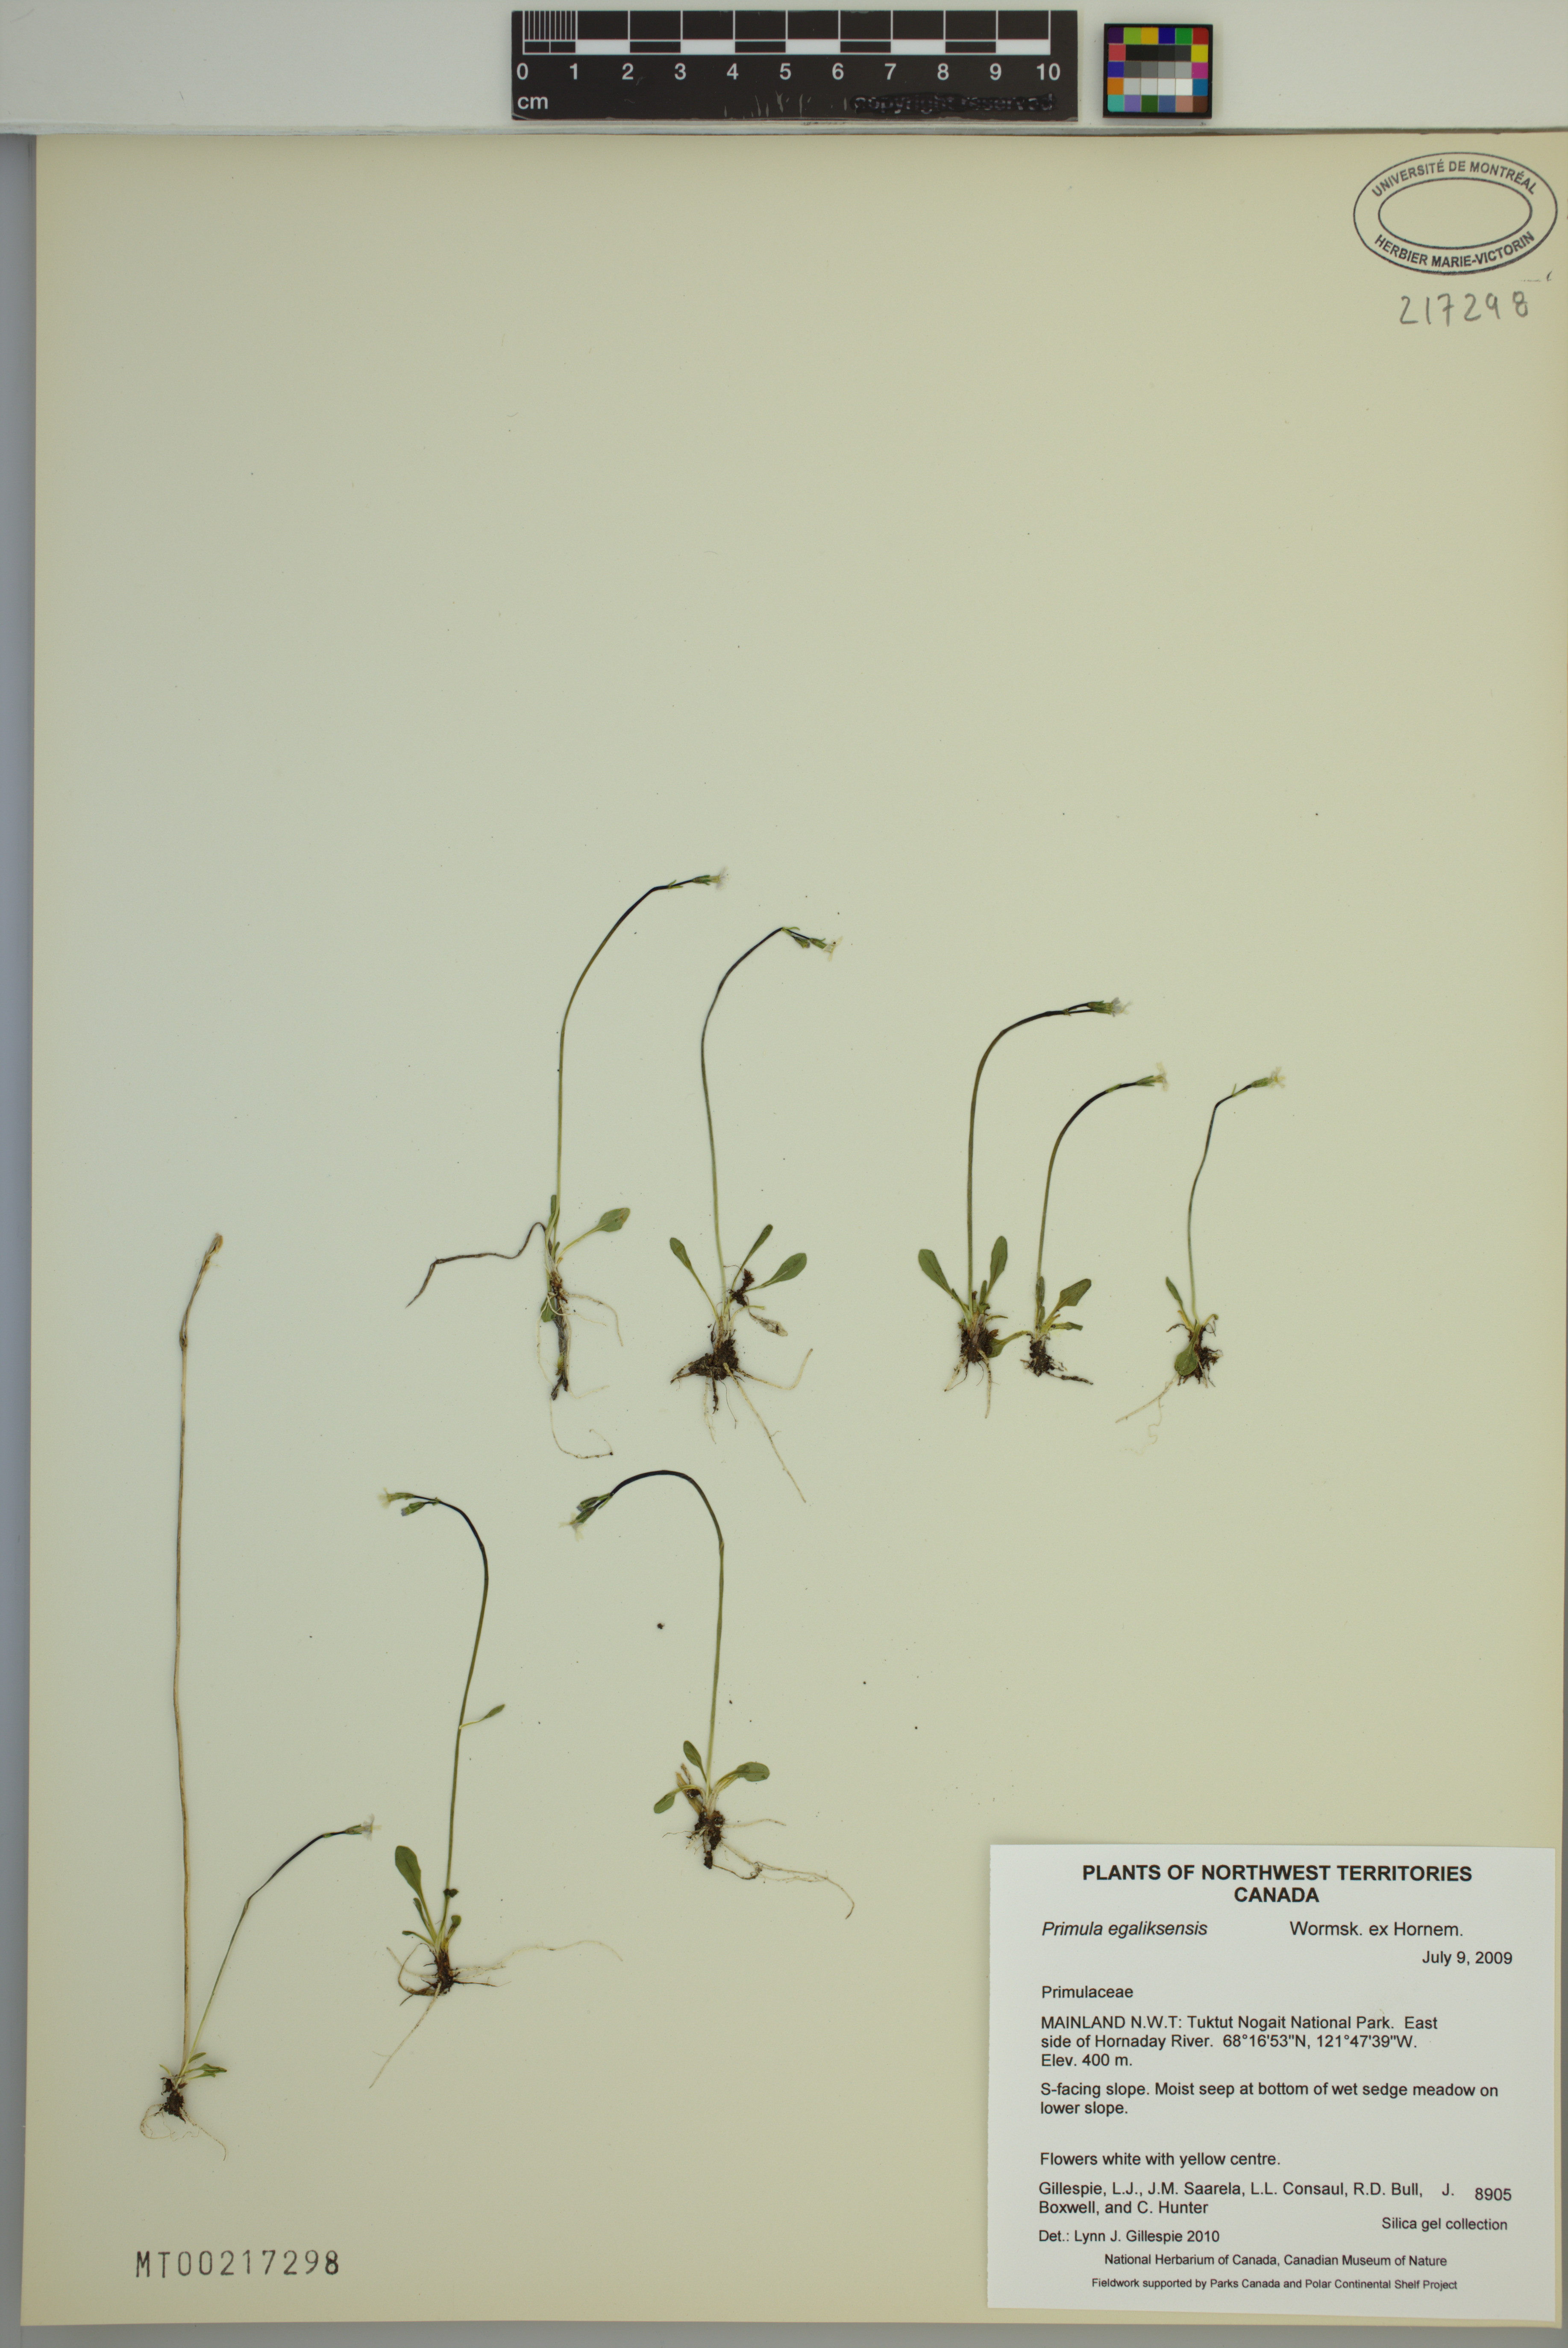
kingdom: Plantae
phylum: Tracheophyta
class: Magnoliopsida
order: Ericales
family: Primulaceae
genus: Primula
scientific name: Primula egaliksensis
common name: Greenland primrose
